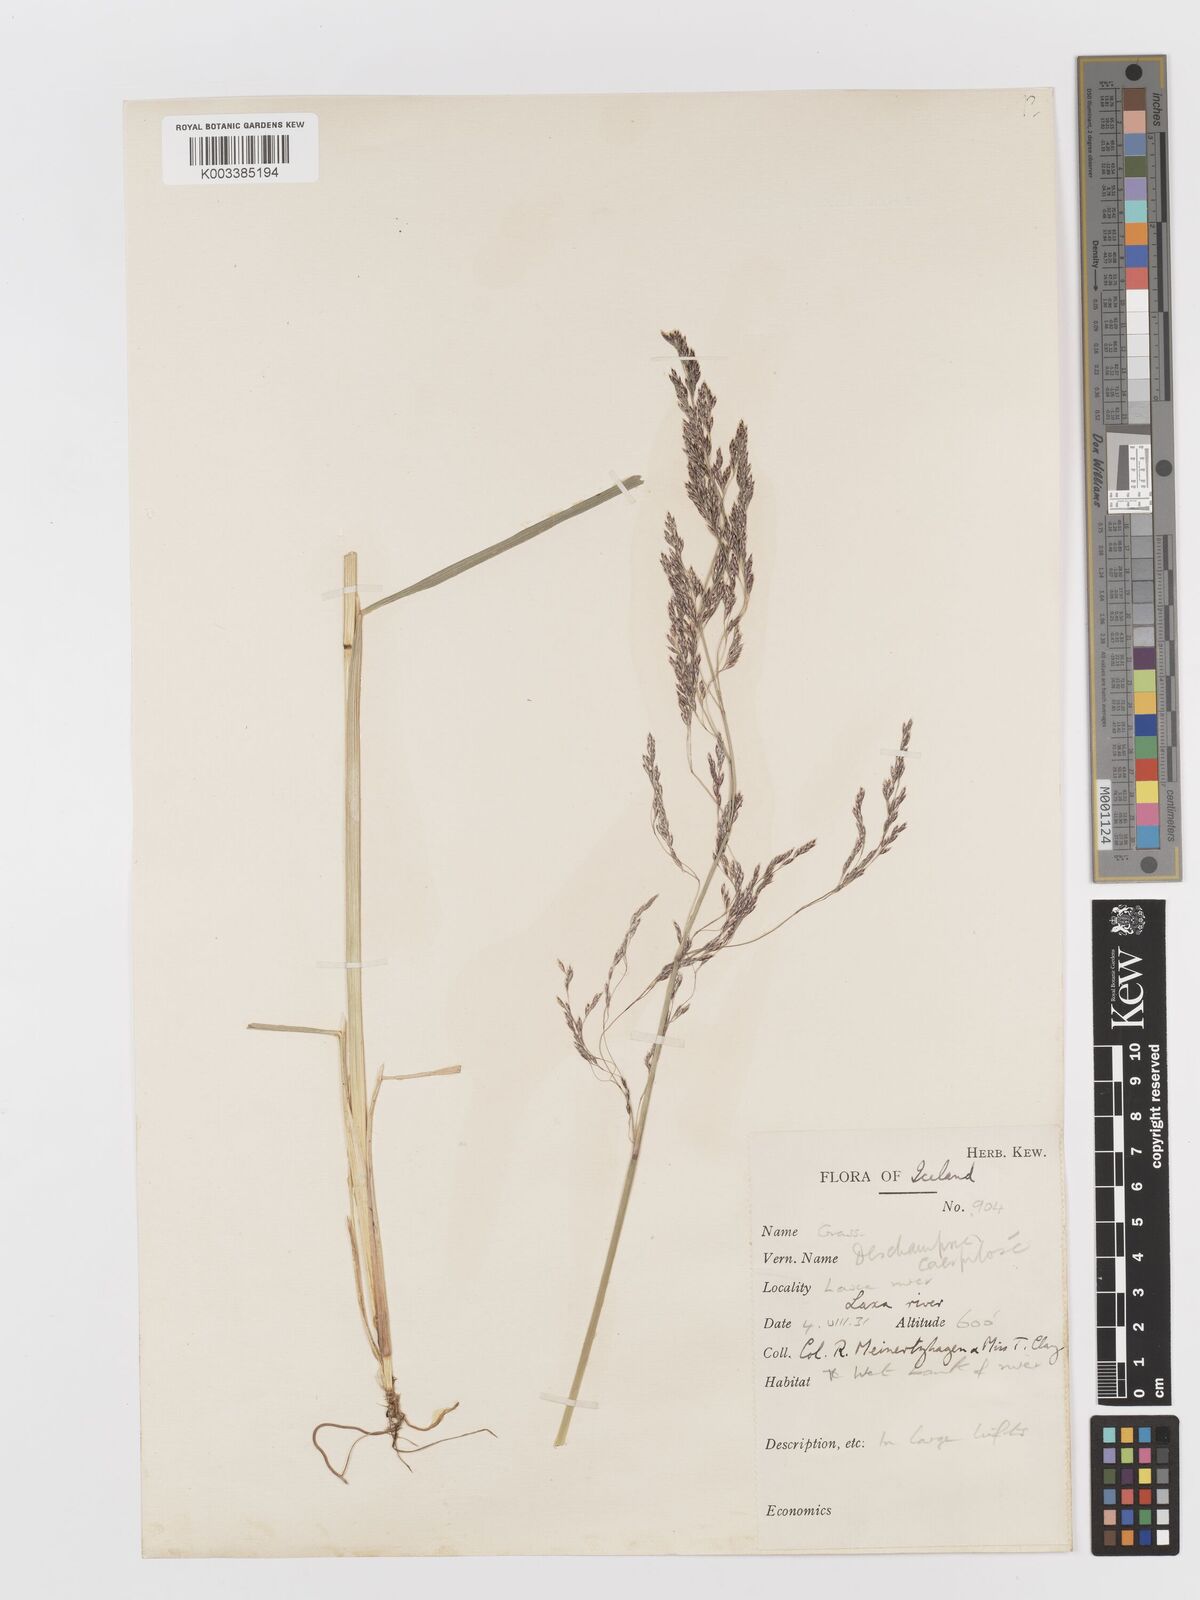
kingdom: Plantae
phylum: Tracheophyta
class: Liliopsida
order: Poales
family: Poaceae
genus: Deschampsia
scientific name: Deschampsia cespitosa
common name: Tufted hair-grass
